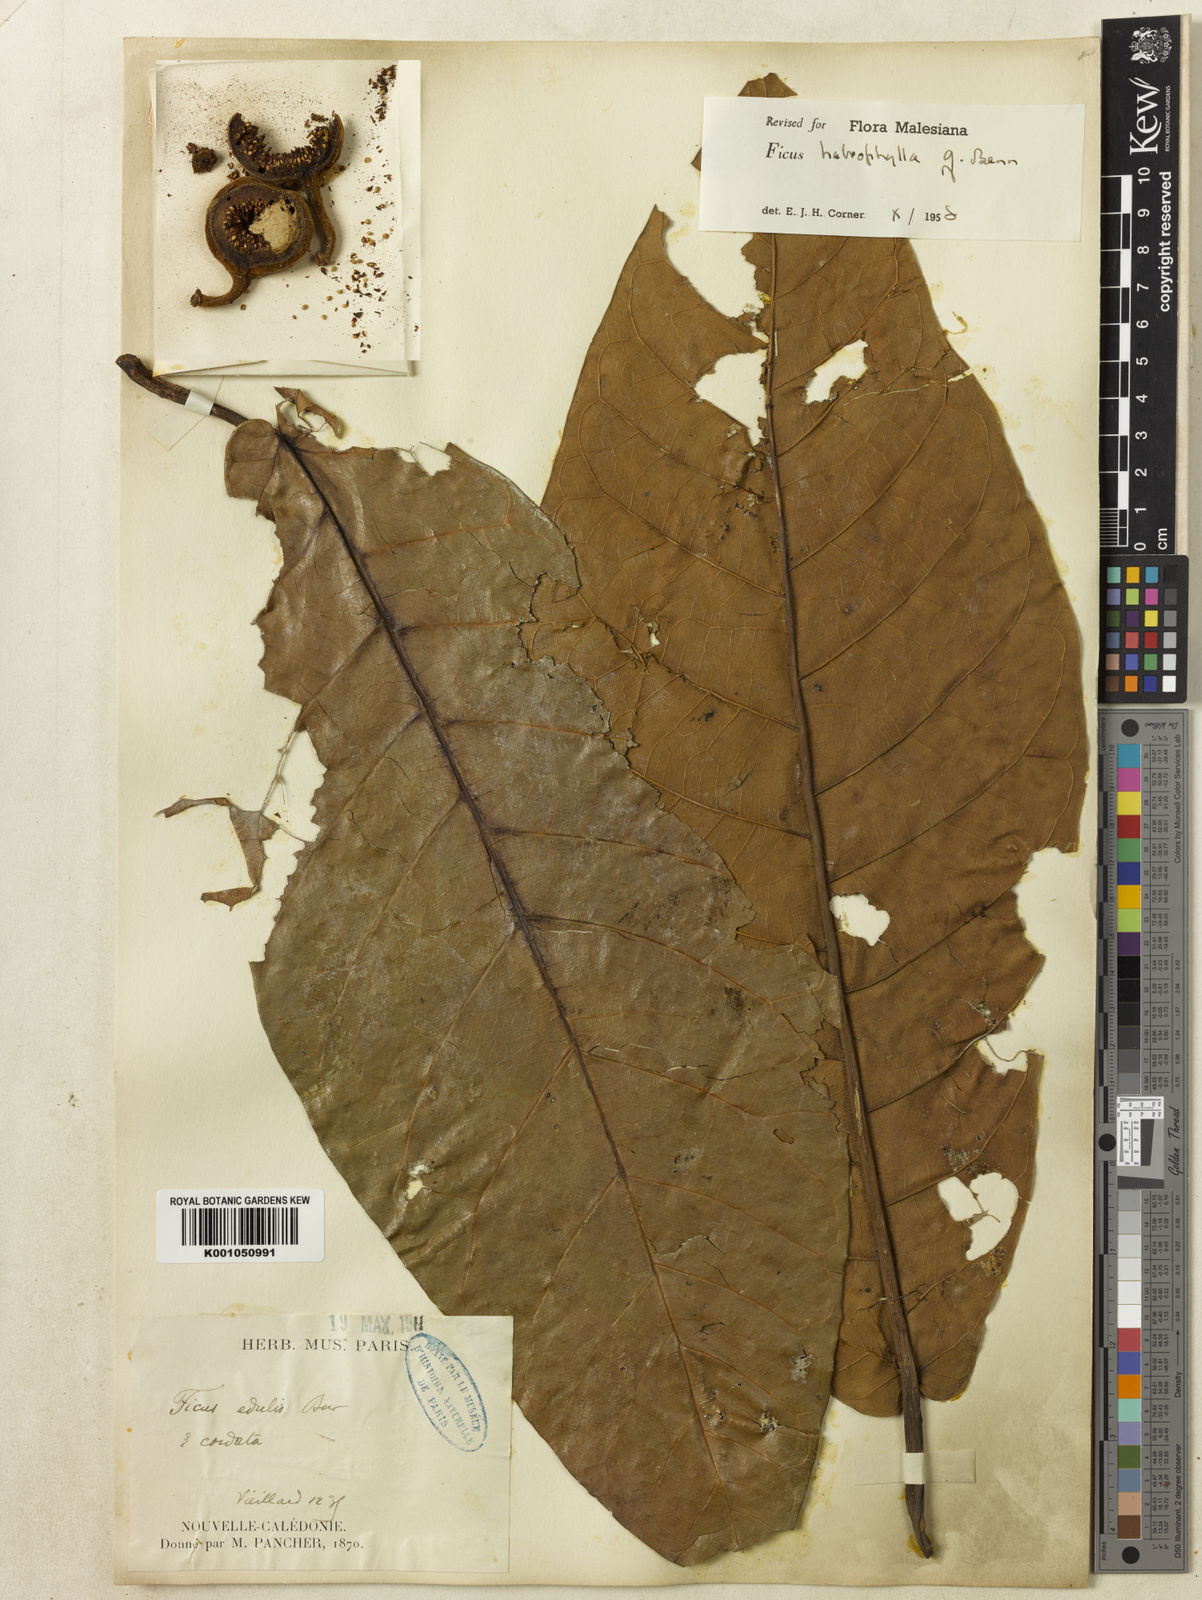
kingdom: Plantae
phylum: Tracheophyta
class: Magnoliopsida
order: Rosales
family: Moraceae
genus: Ficus
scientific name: Ficus
